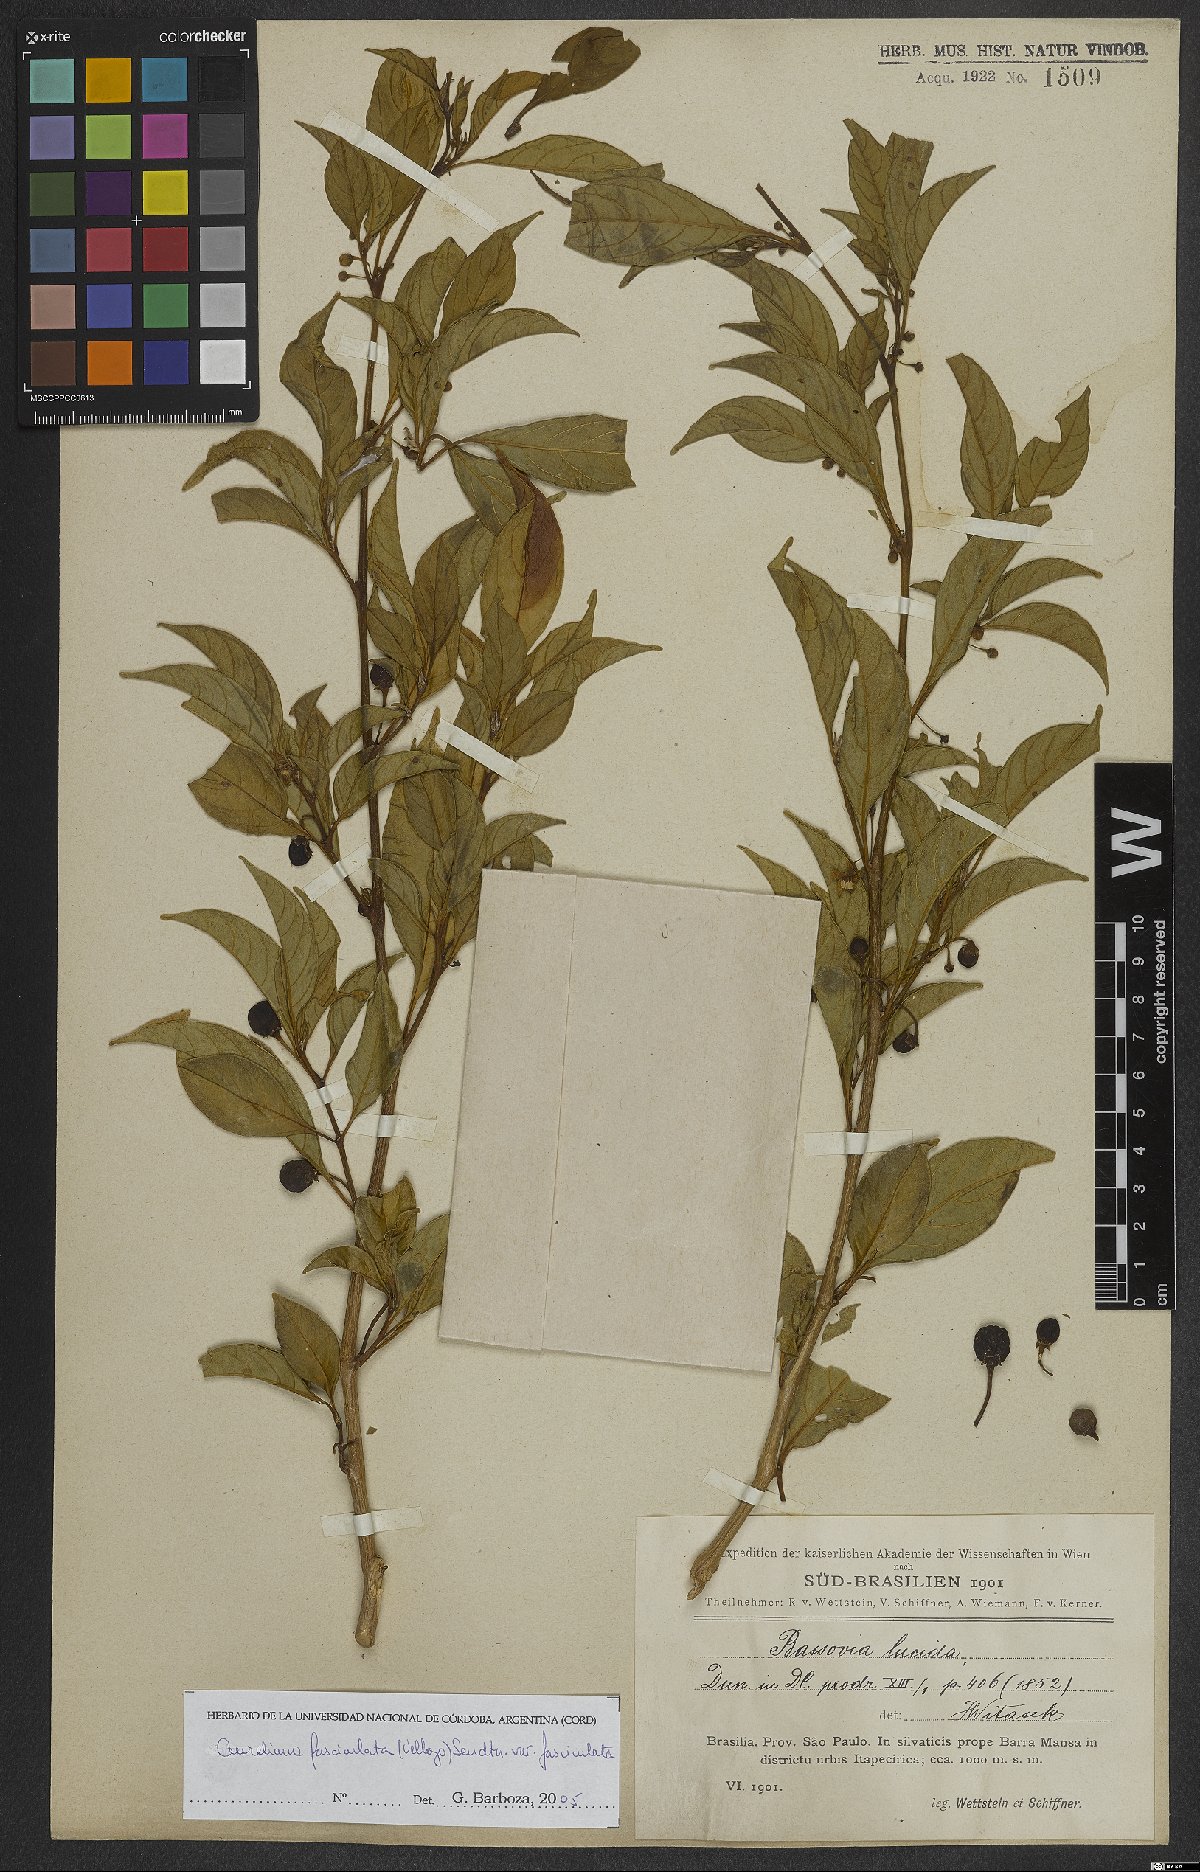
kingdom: Plantae
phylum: Tracheophyta
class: Magnoliopsida
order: Solanales
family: Solanaceae
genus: Athenaea
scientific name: Athenaea fasciculata
